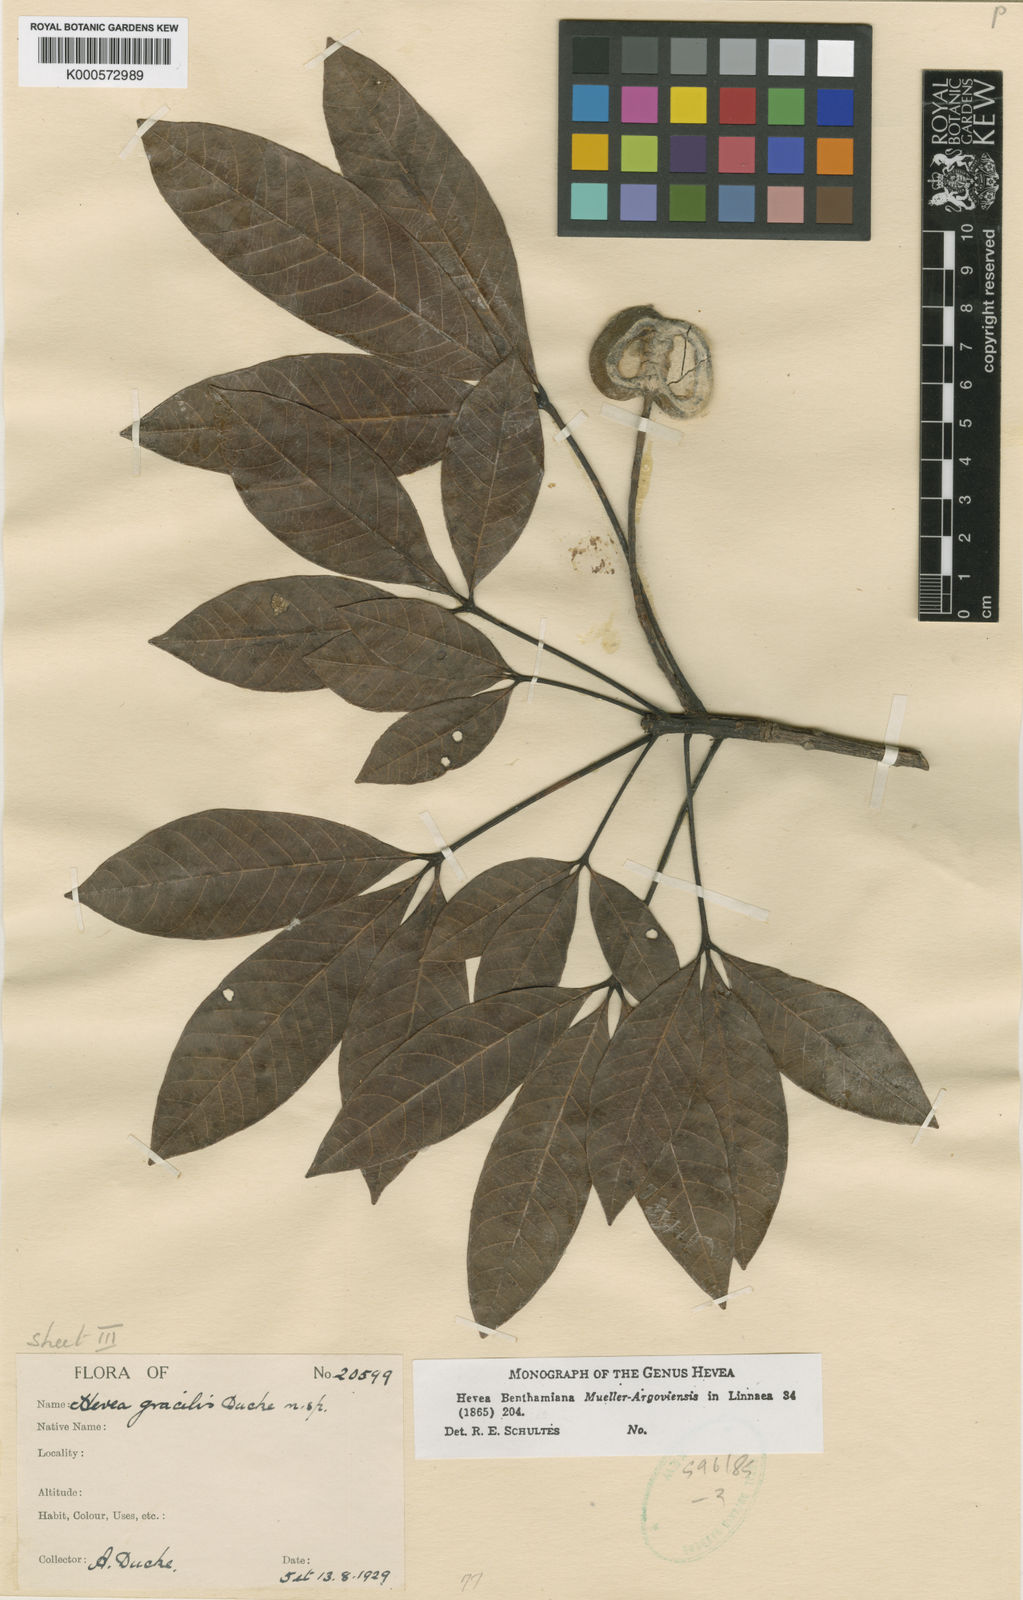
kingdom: Plantae
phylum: Tracheophyta
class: Magnoliopsida
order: Malpighiales
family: Euphorbiaceae
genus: Hevea
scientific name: Hevea gracilis
